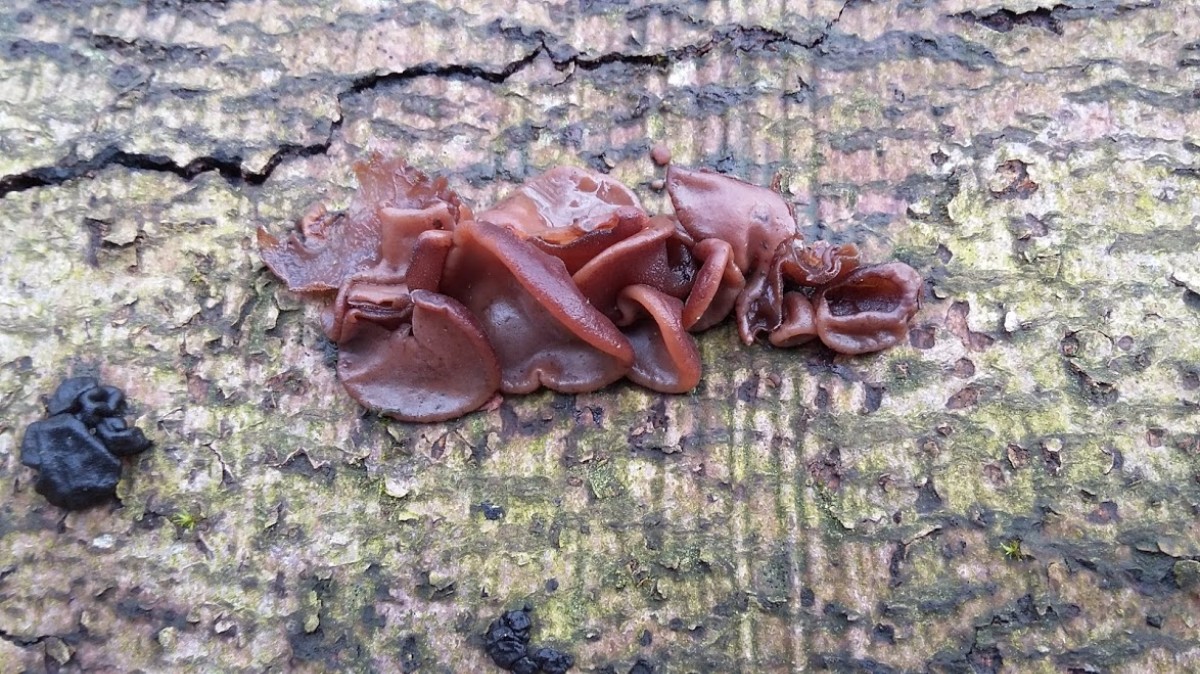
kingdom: Fungi
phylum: Ascomycota
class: Leotiomycetes
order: Helotiales
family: Gelatinodiscaceae
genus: Ascocoryne
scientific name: Ascocoryne
